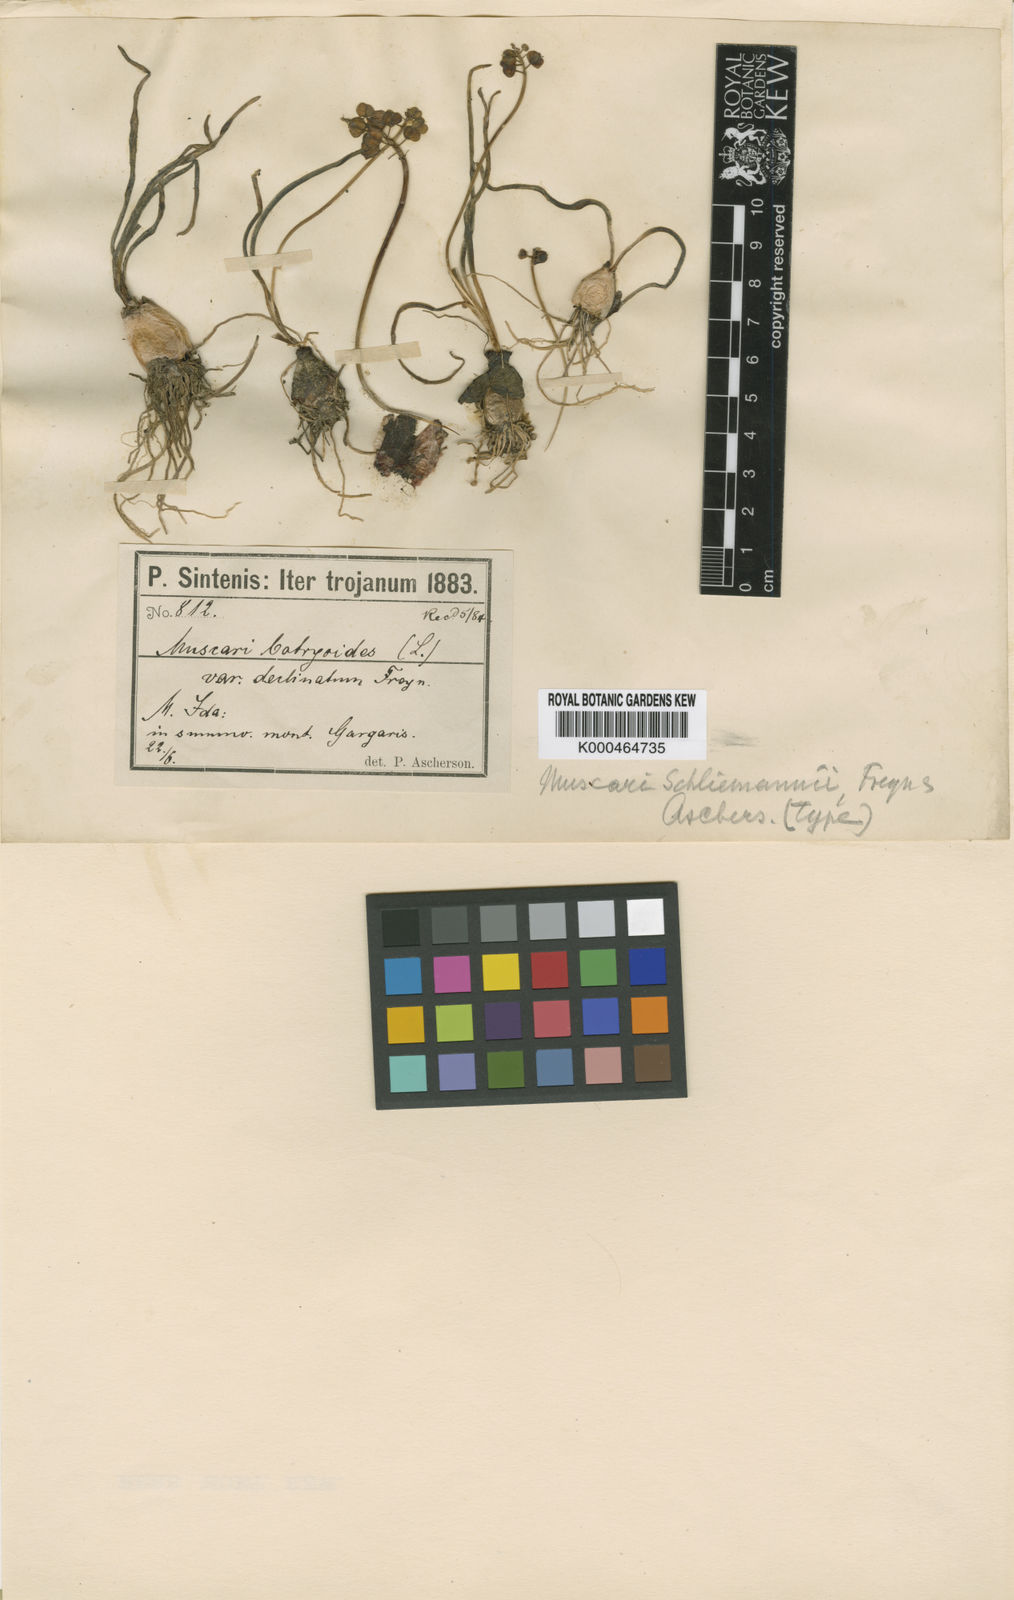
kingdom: Plantae
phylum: Tracheophyta
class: Liliopsida
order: Asparagales
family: Asparagaceae
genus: Muscari
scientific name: Muscari armeniacum
